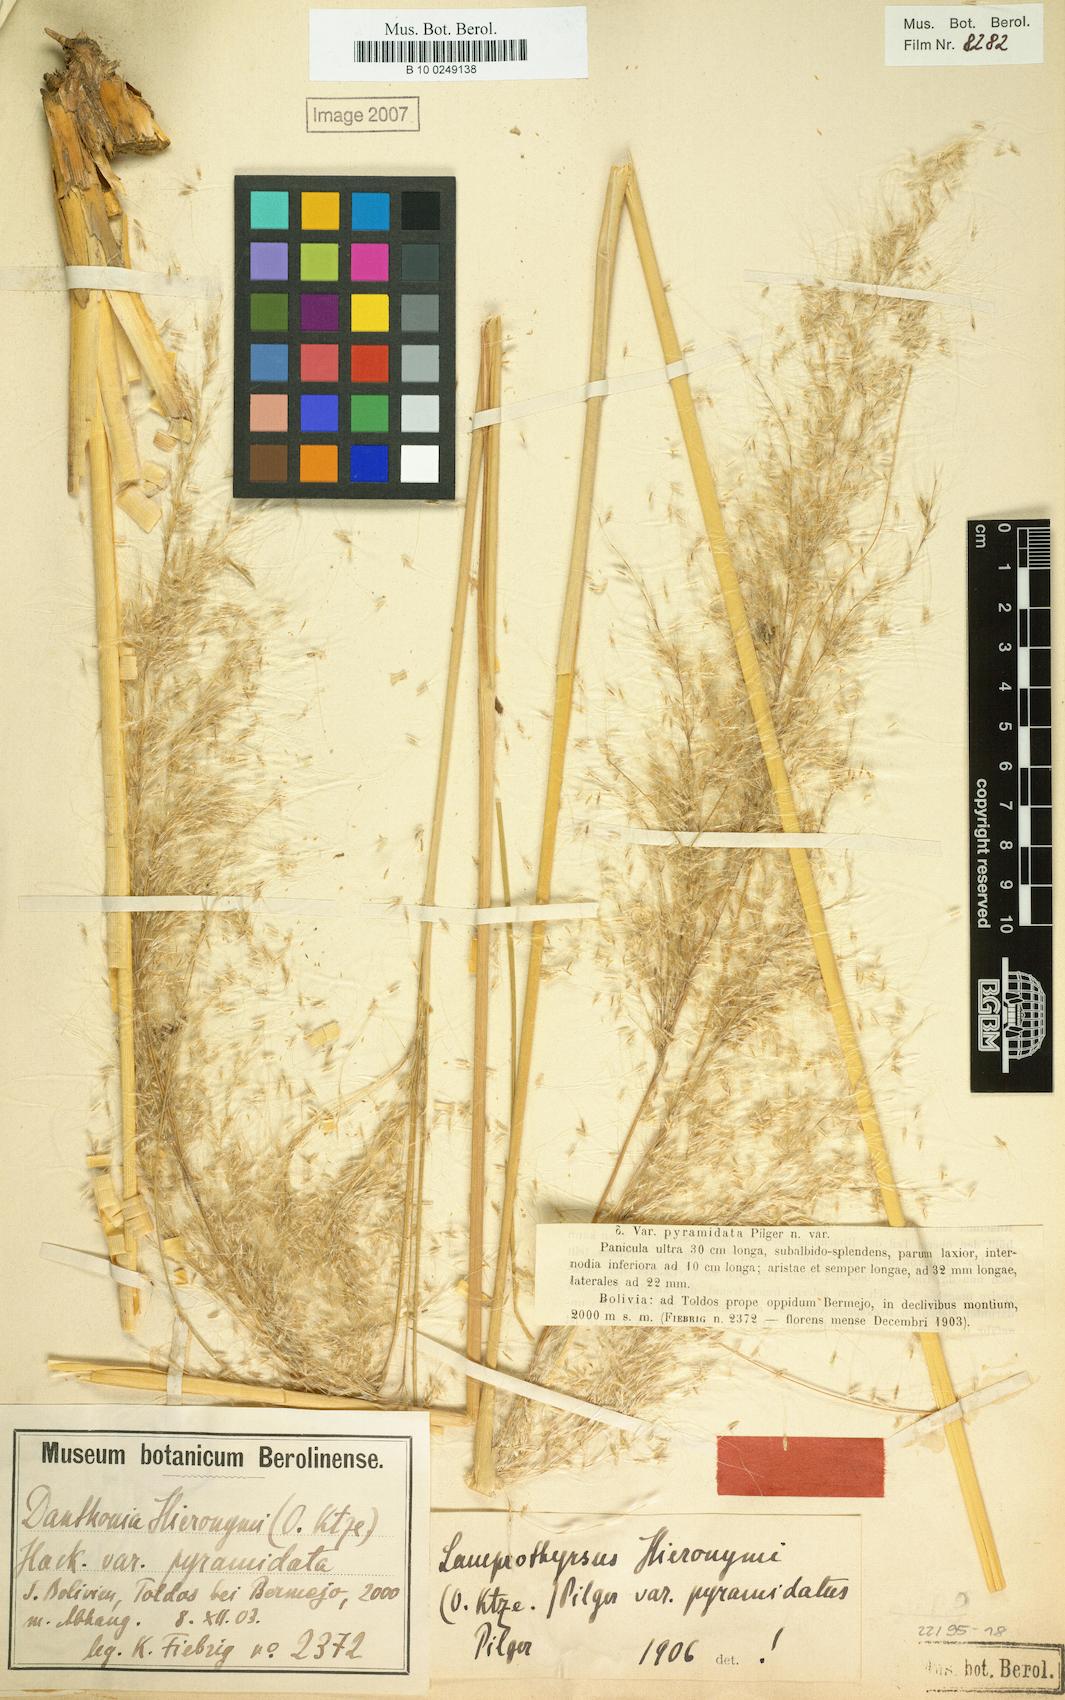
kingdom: Plantae
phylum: Tracheophyta
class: Liliopsida
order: Poales
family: Poaceae
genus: Cortaderia
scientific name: Cortaderia hieronymi
